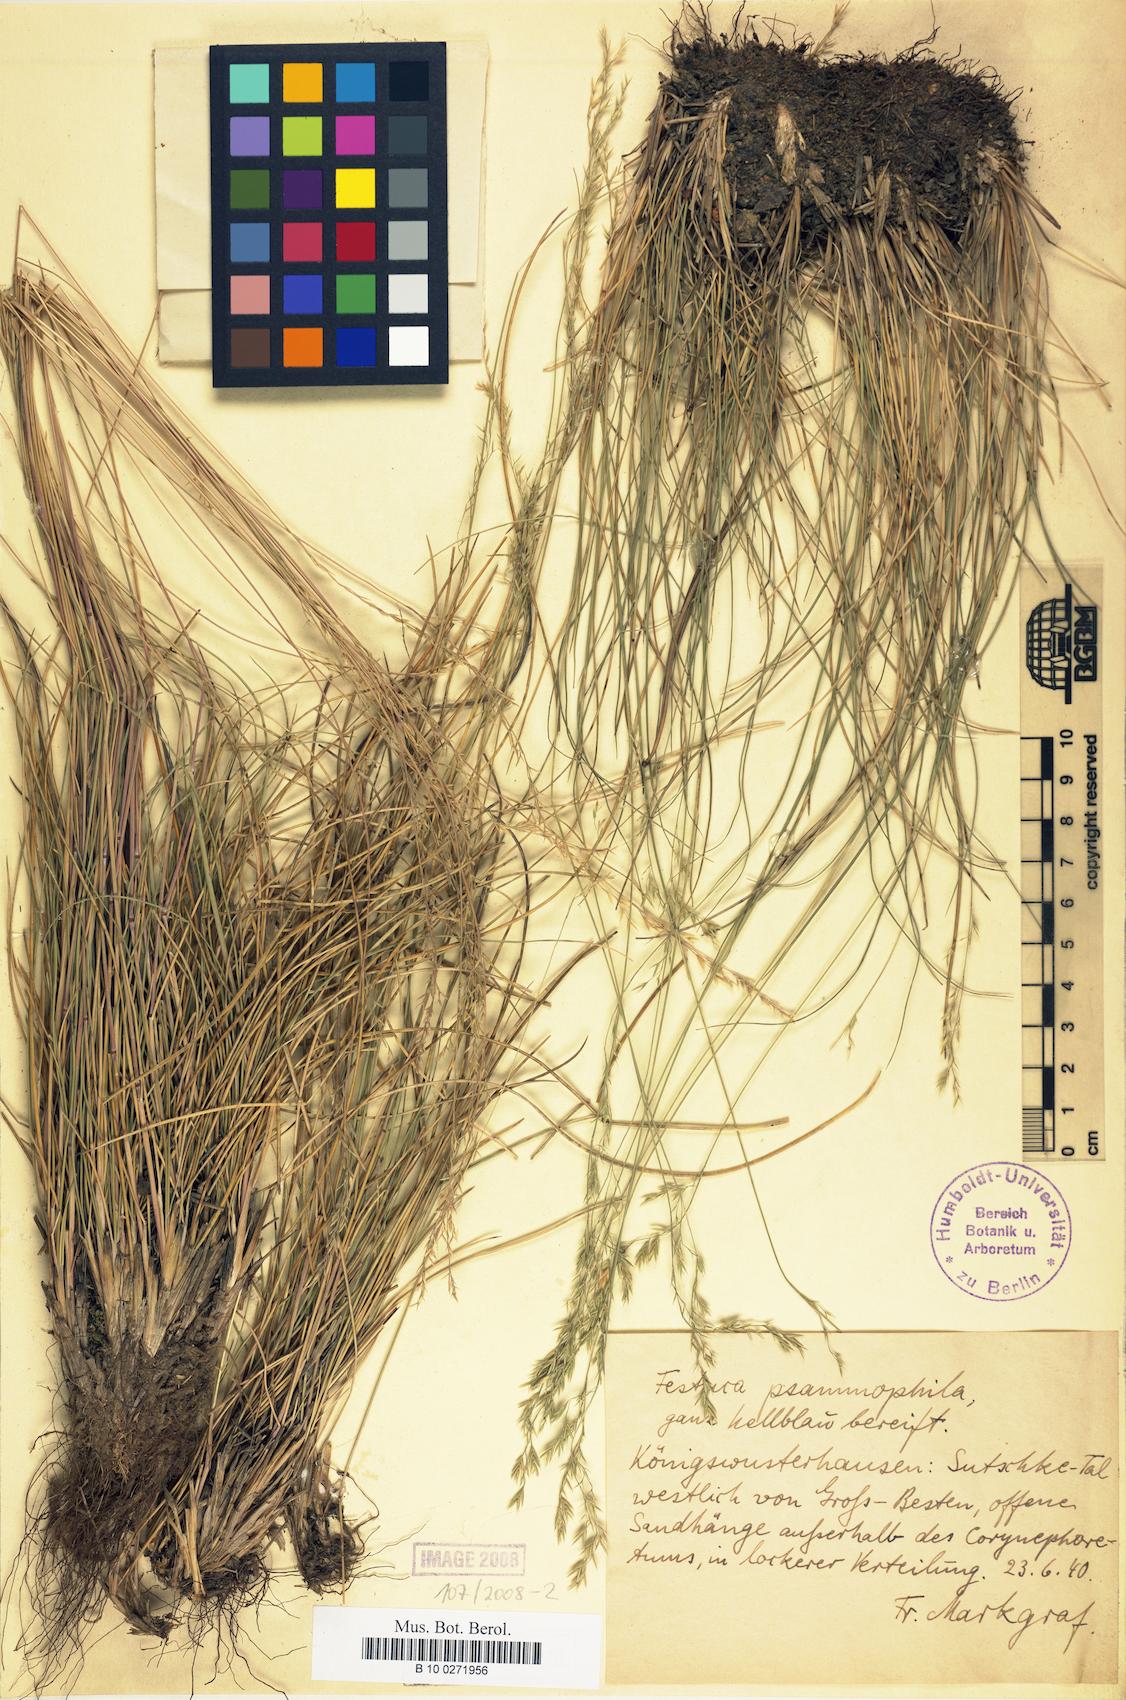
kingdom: Plantae
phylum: Tracheophyta
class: Liliopsida
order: Poales
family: Poaceae
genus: Festuca
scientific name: Festuca psammophila
